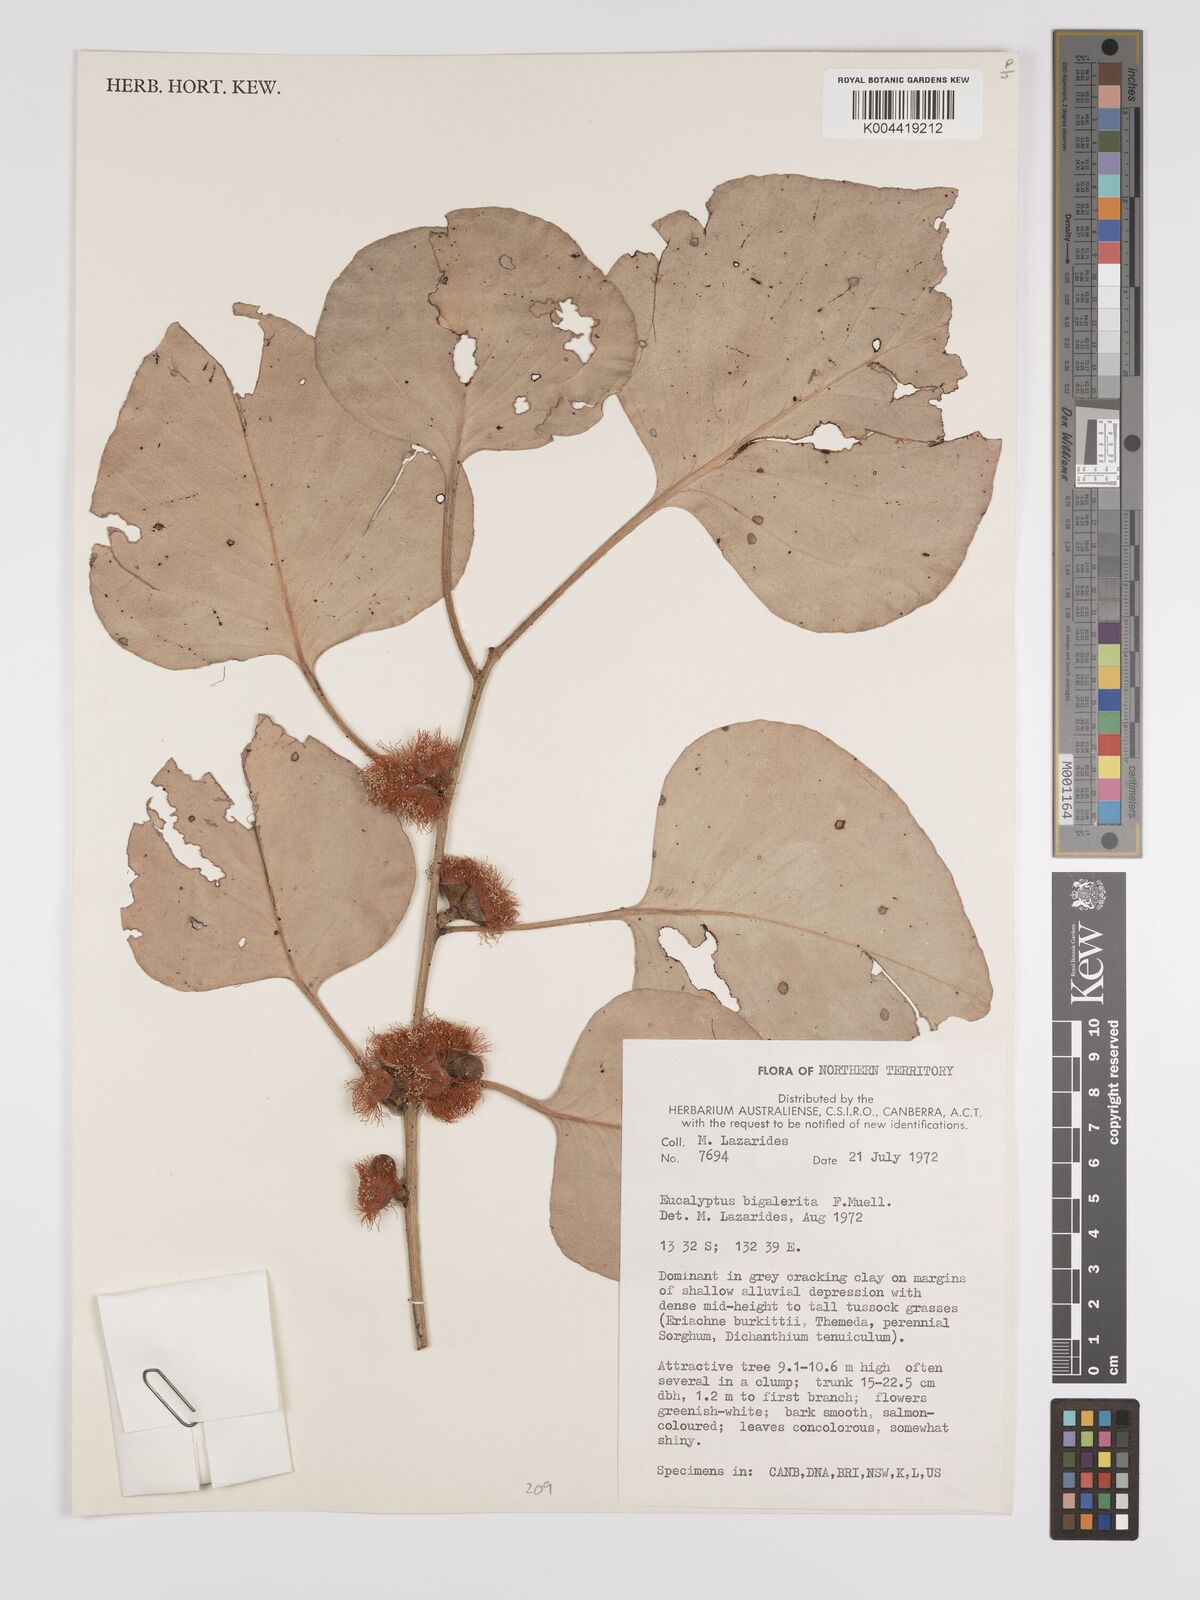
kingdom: Plantae
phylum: Tracheophyta
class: Magnoliopsida
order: Myrtales
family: Myrtaceae
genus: Eucalyptus
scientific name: Eucalyptus bigalerita
